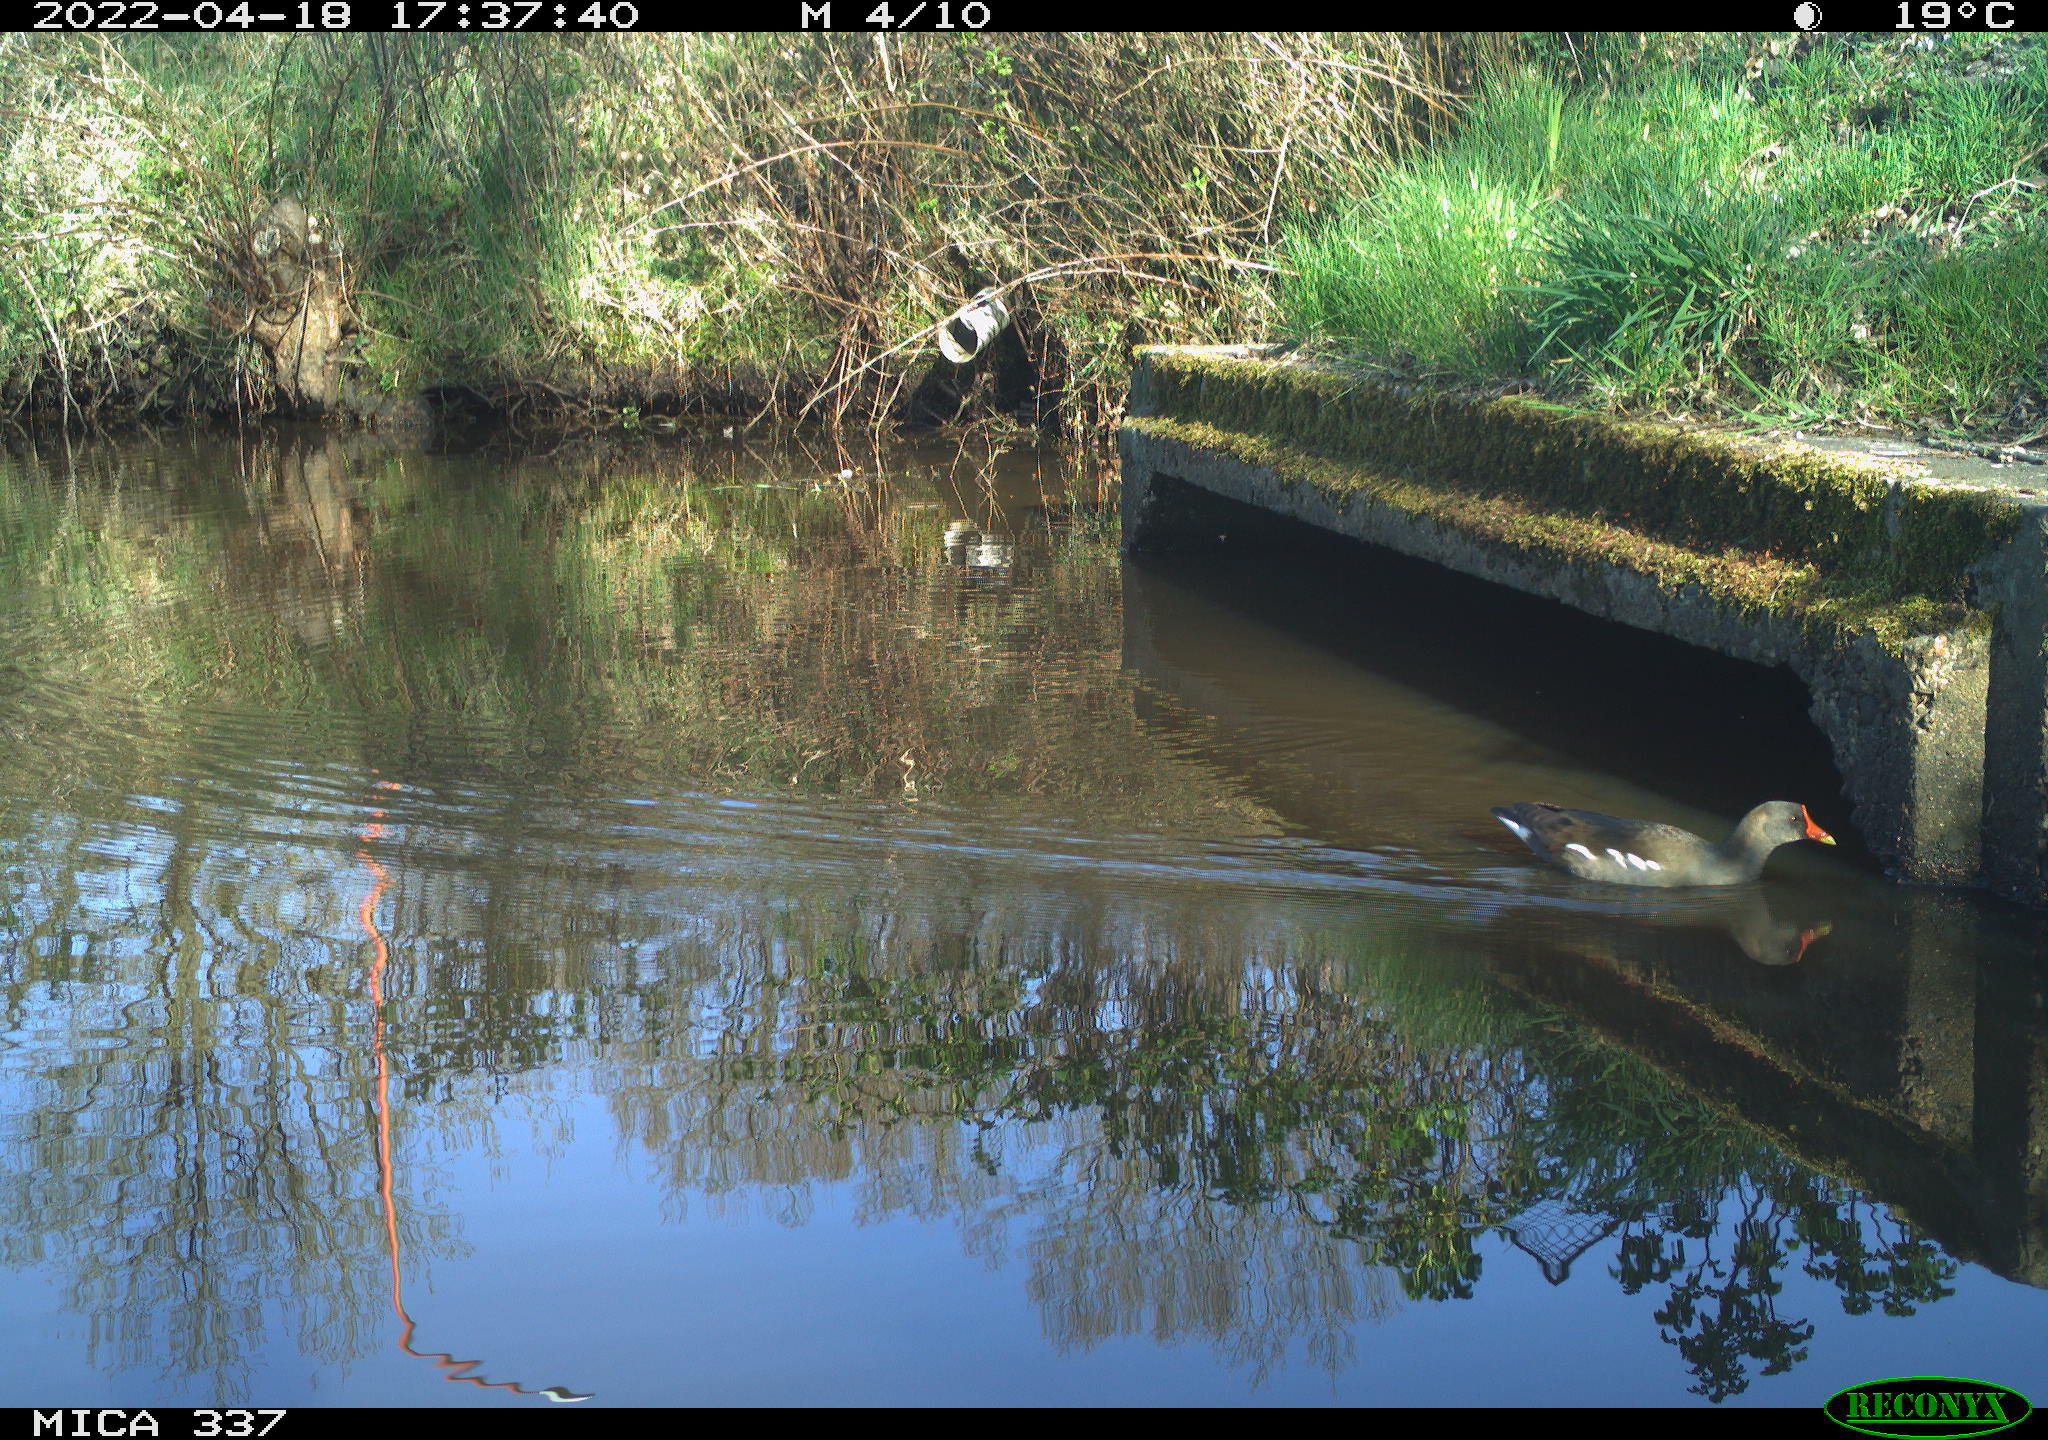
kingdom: Animalia
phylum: Chordata
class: Aves
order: Gruiformes
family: Rallidae
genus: Gallinula
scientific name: Gallinula chloropus
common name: Common moorhen
